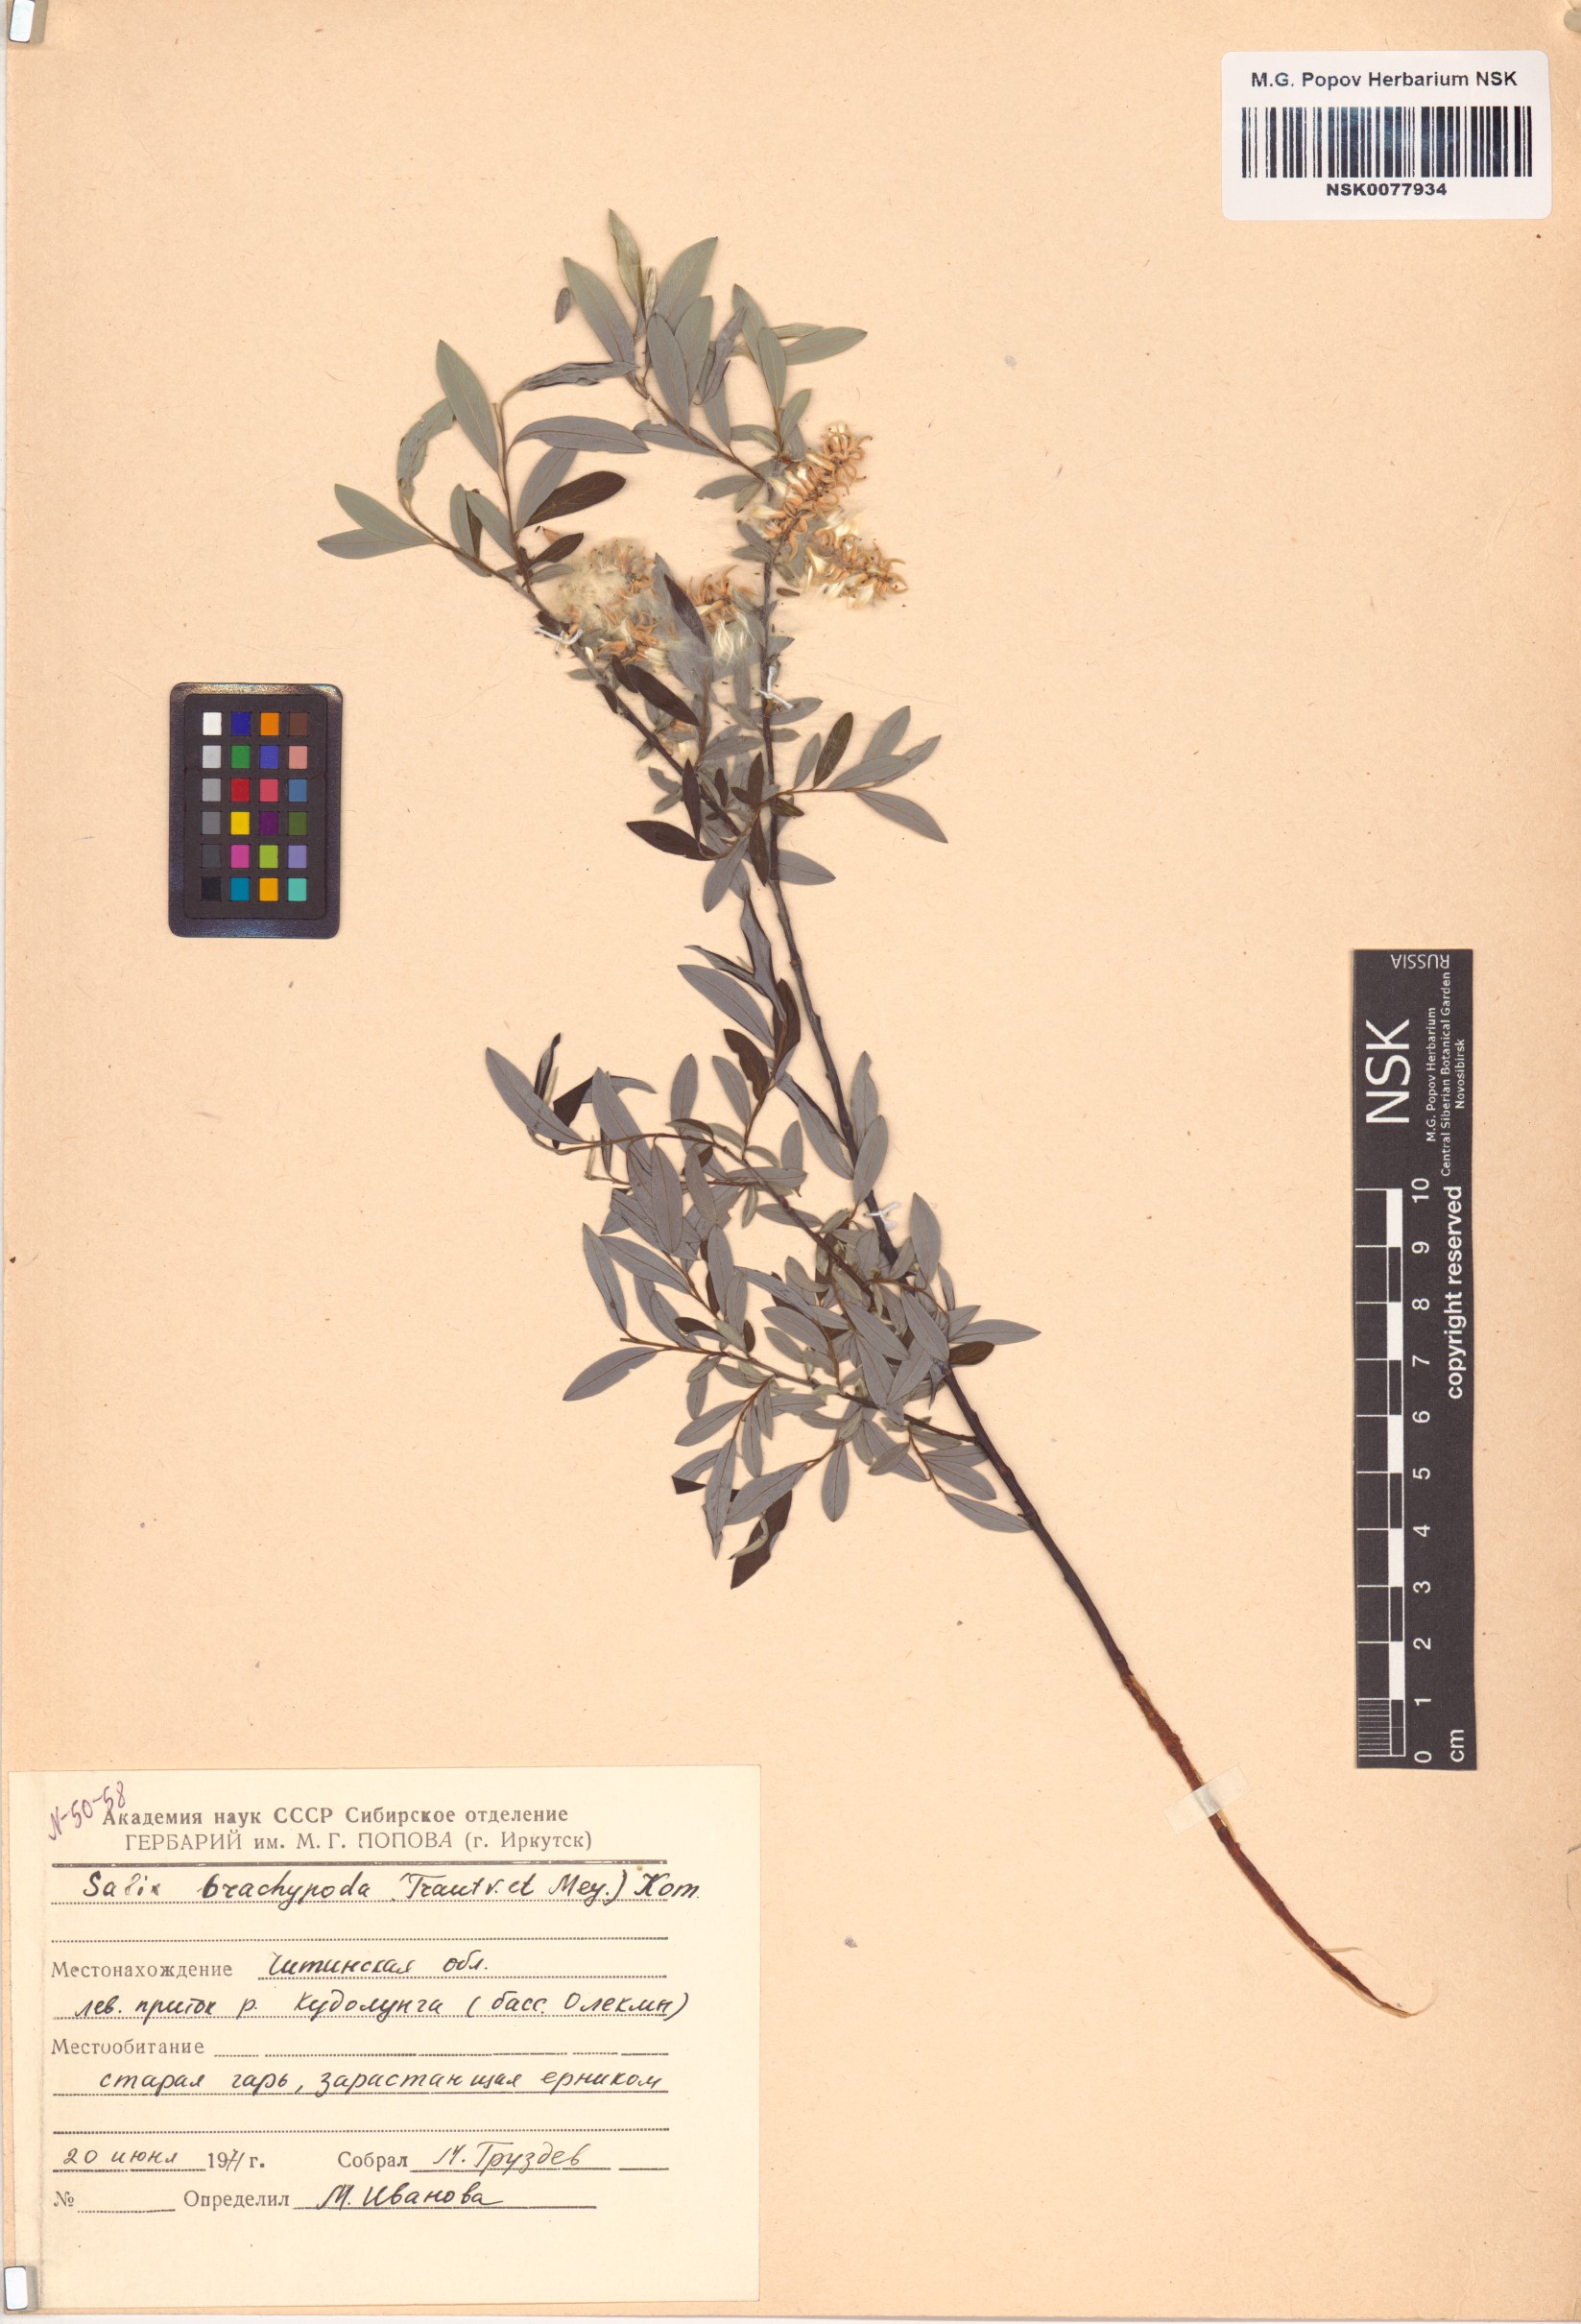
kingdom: Plantae
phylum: Tracheophyta
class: Magnoliopsida
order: Malpighiales
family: Salicaceae
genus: Salix
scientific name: Salix brachypoda
